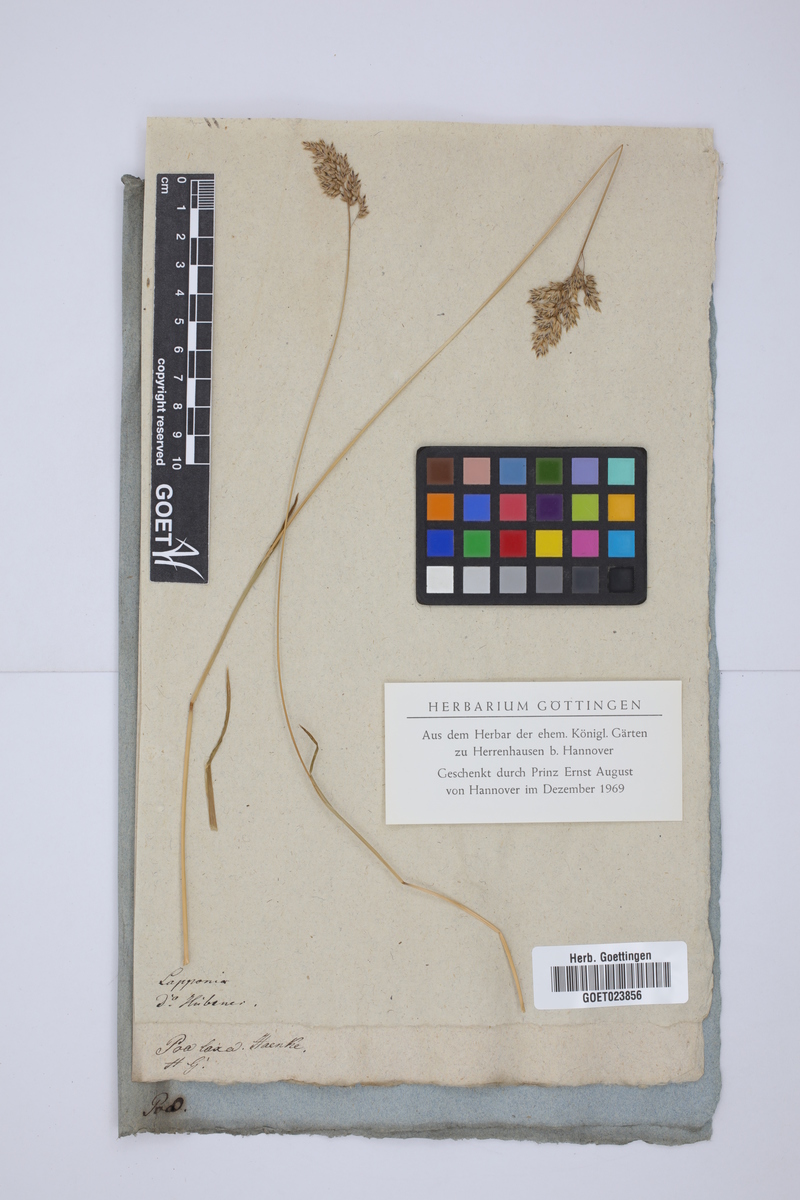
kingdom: Plantae
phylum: Tracheophyta
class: Liliopsida
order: Poales
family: Poaceae
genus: Poa
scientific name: Poa laxa
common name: Lax bluegrass
